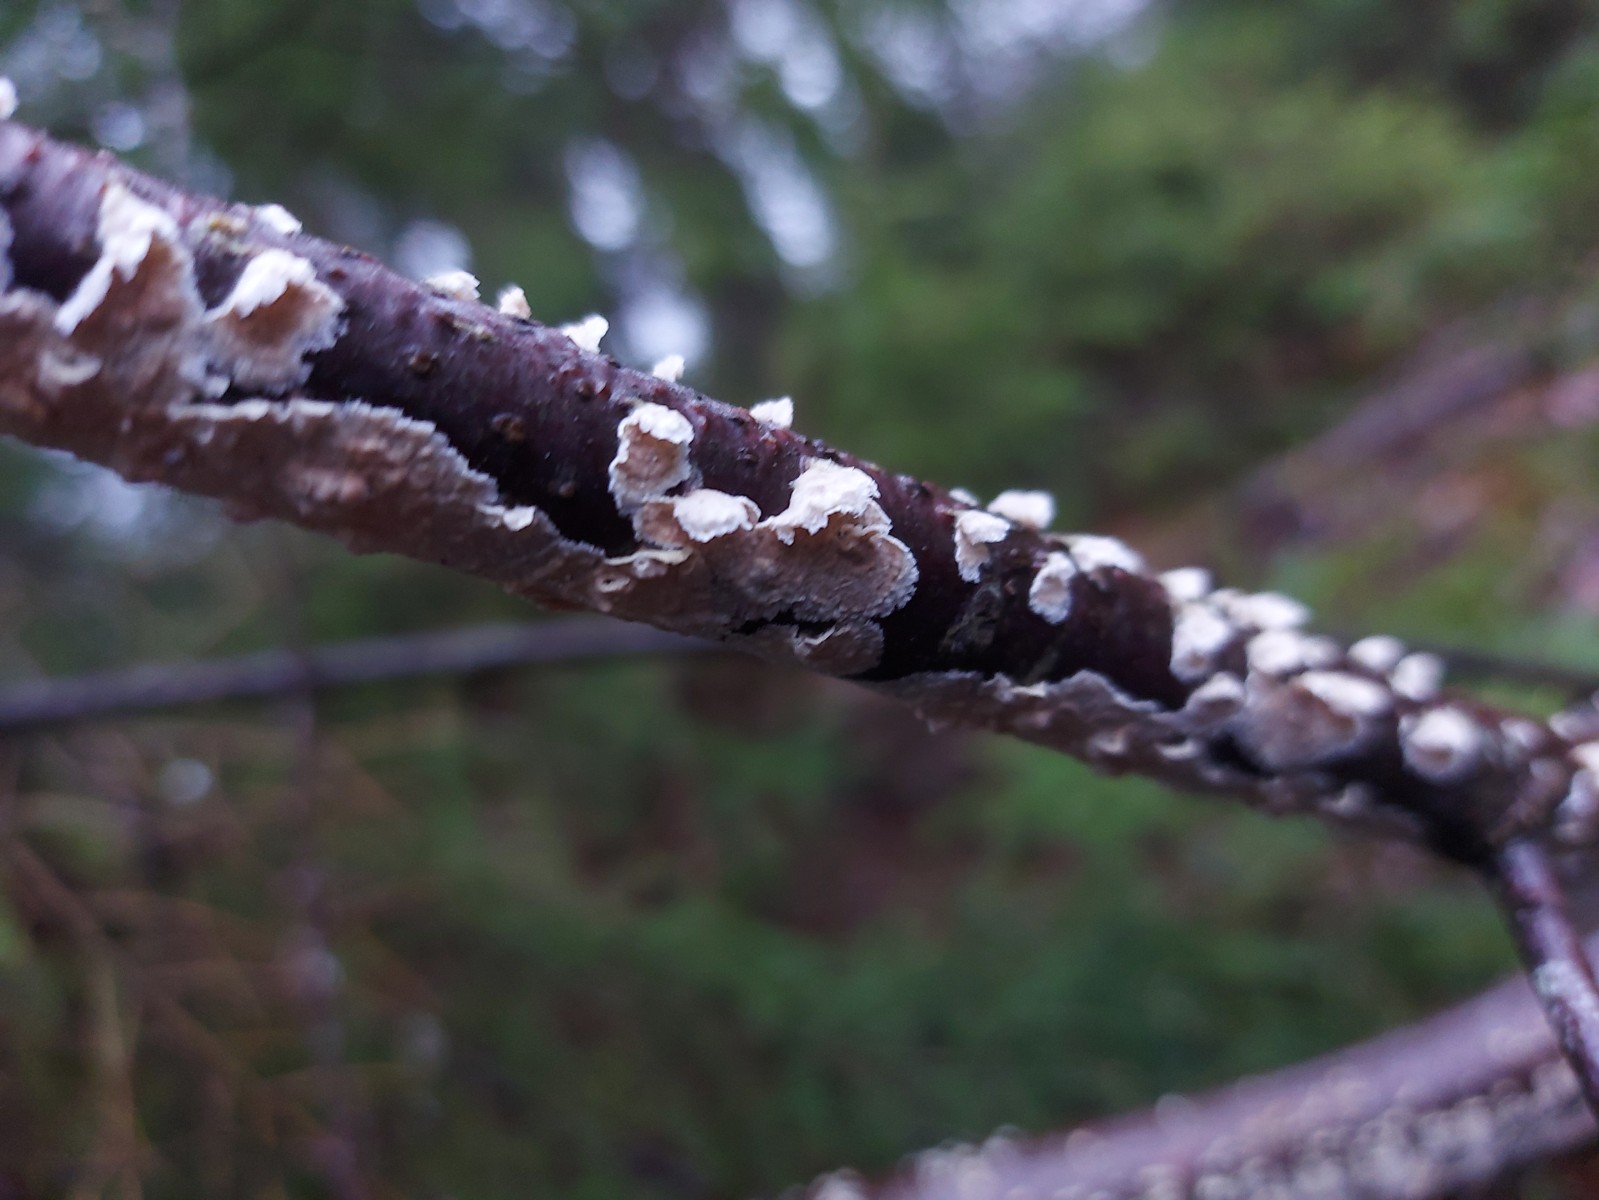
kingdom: Fungi
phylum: Basidiomycota
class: Agaricomycetes
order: Agaricales
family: Physalacriaceae
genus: Cylindrobasidium
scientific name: Cylindrobasidium evolvens
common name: sprækkehinde
